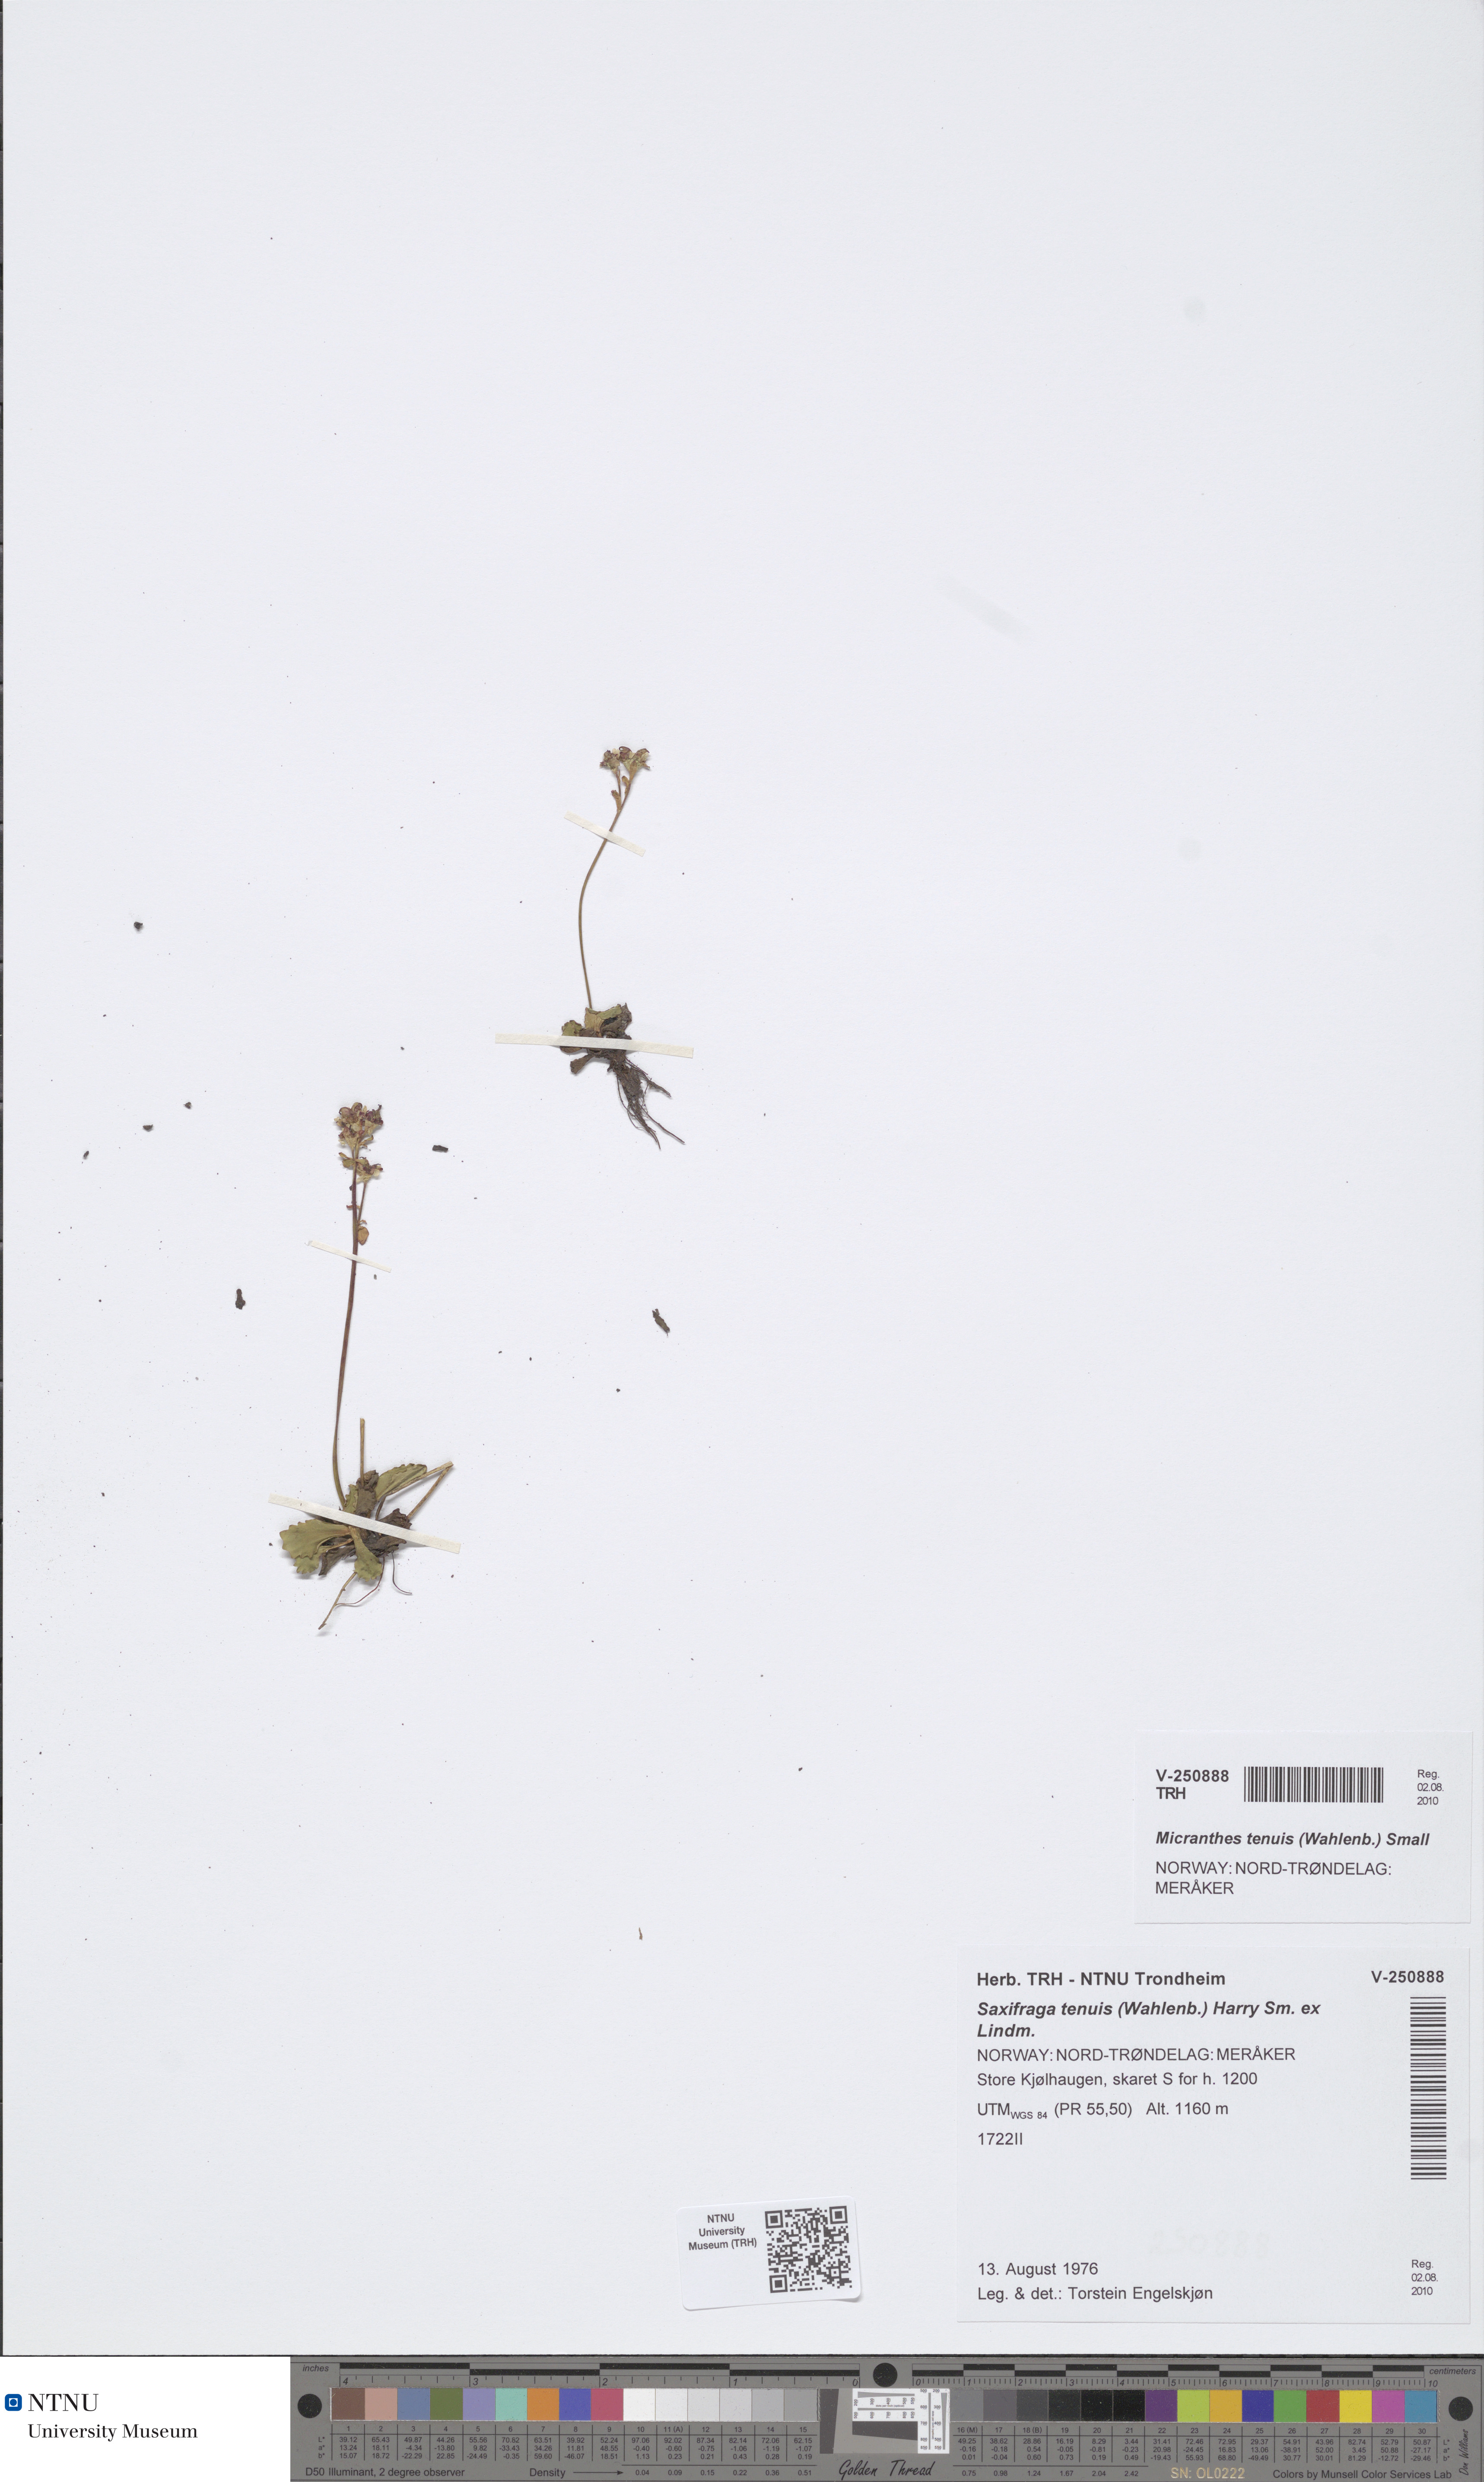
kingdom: Plantae
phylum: Tracheophyta
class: Magnoliopsida
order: Saxifragales
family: Saxifragaceae
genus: Micranthes
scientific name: Micranthes tenuis
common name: Ottertail pass saxifrage
